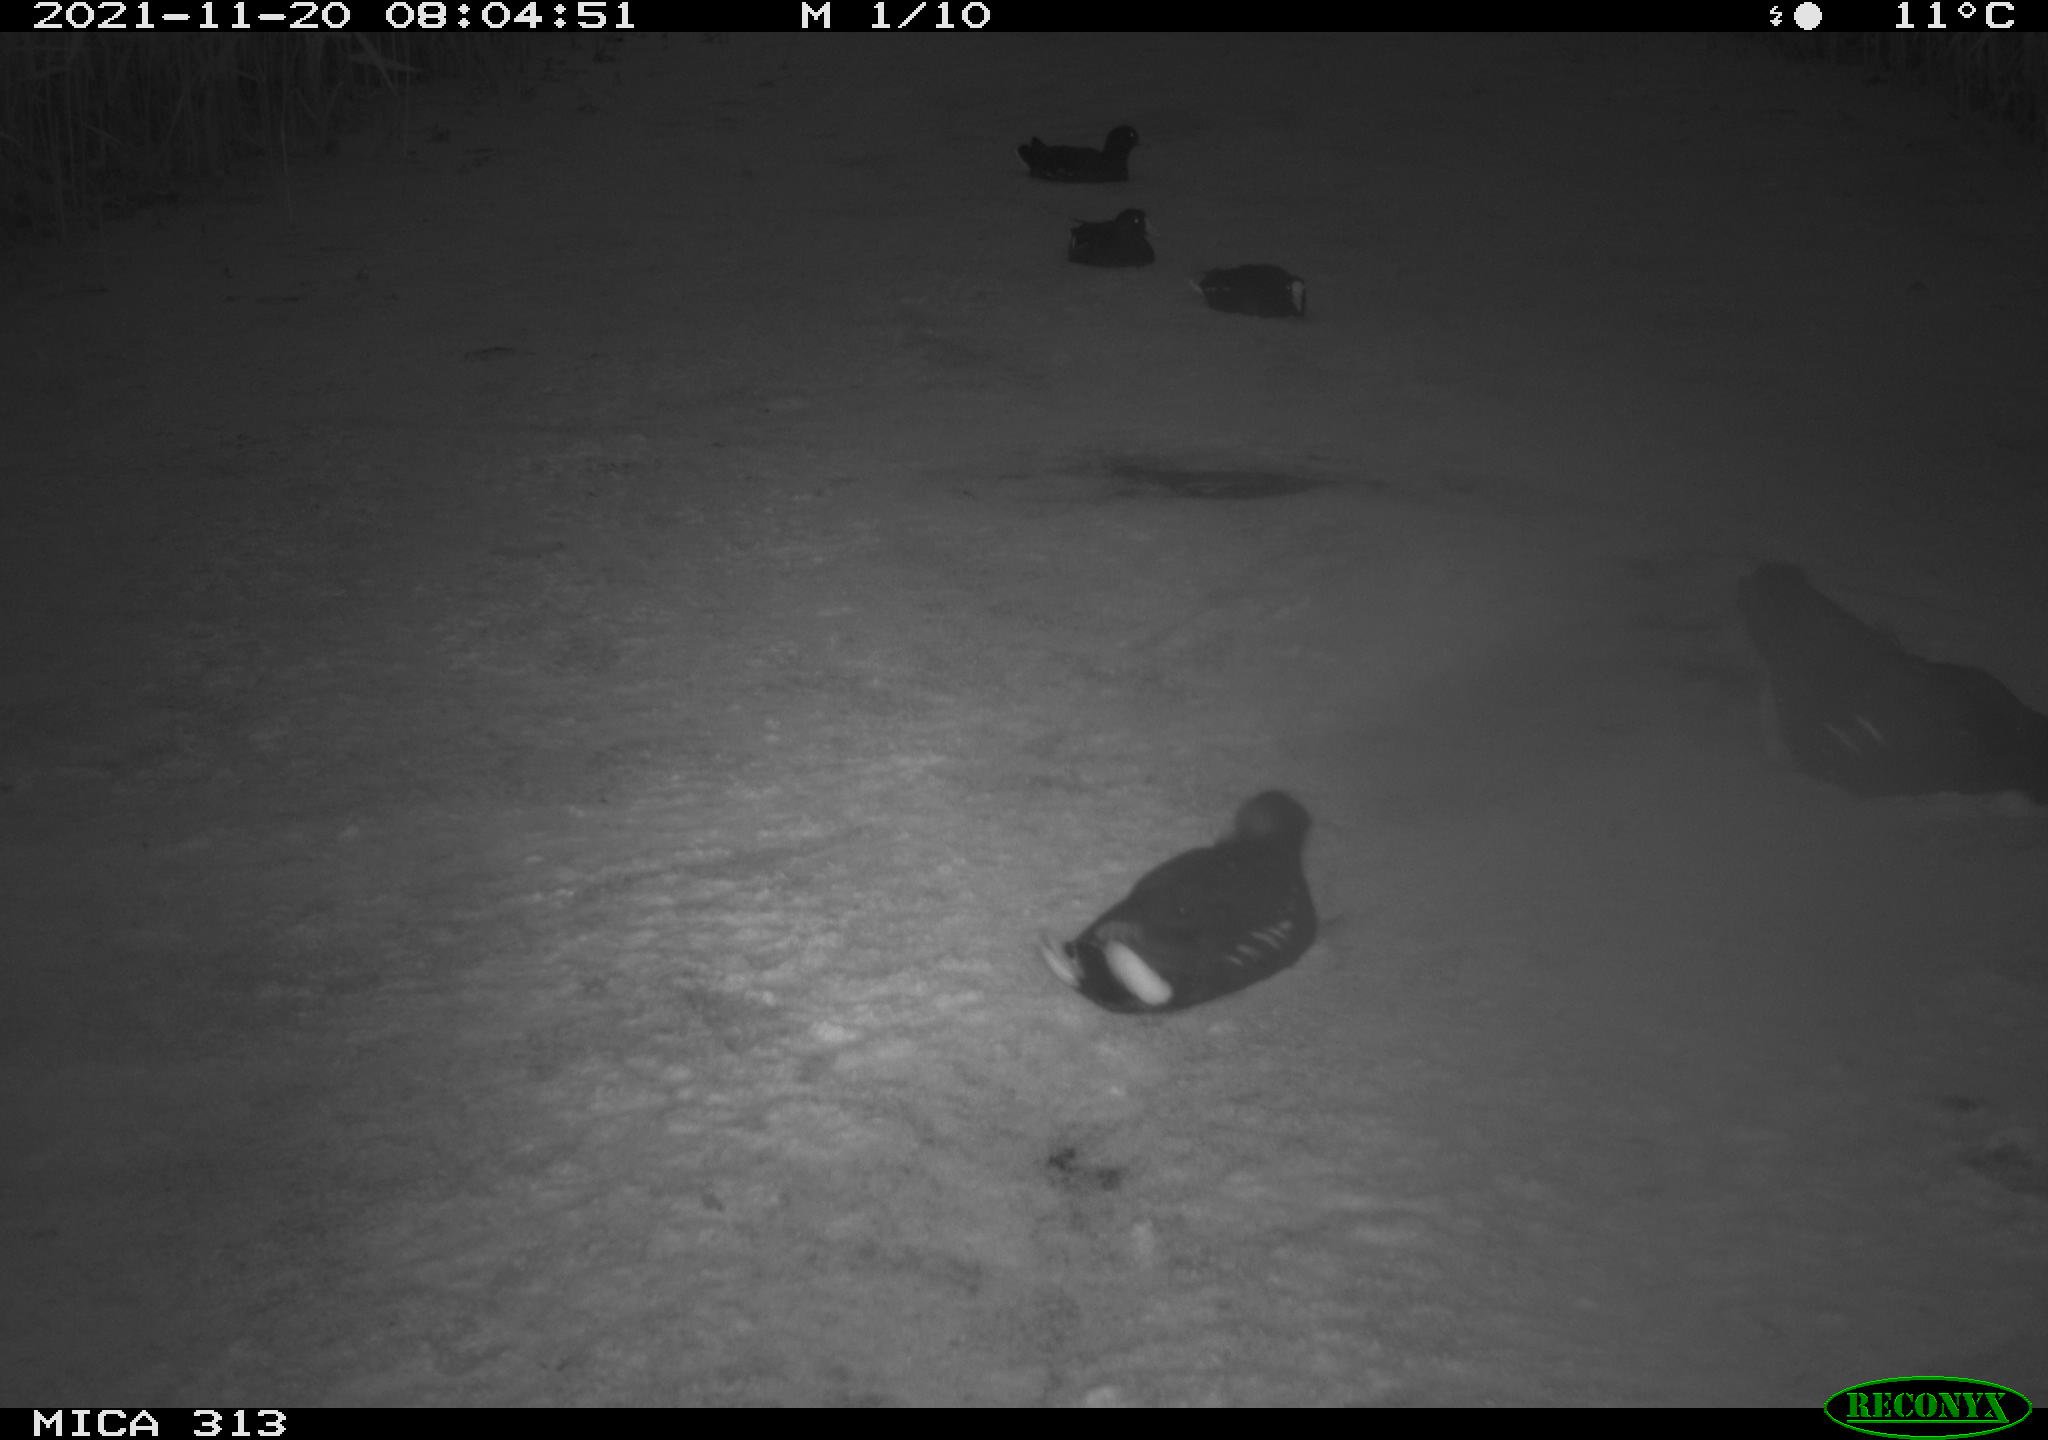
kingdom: Animalia
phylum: Chordata
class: Aves
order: Gruiformes
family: Rallidae
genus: Gallinula
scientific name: Gallinula chloropus
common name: Common moorhen
